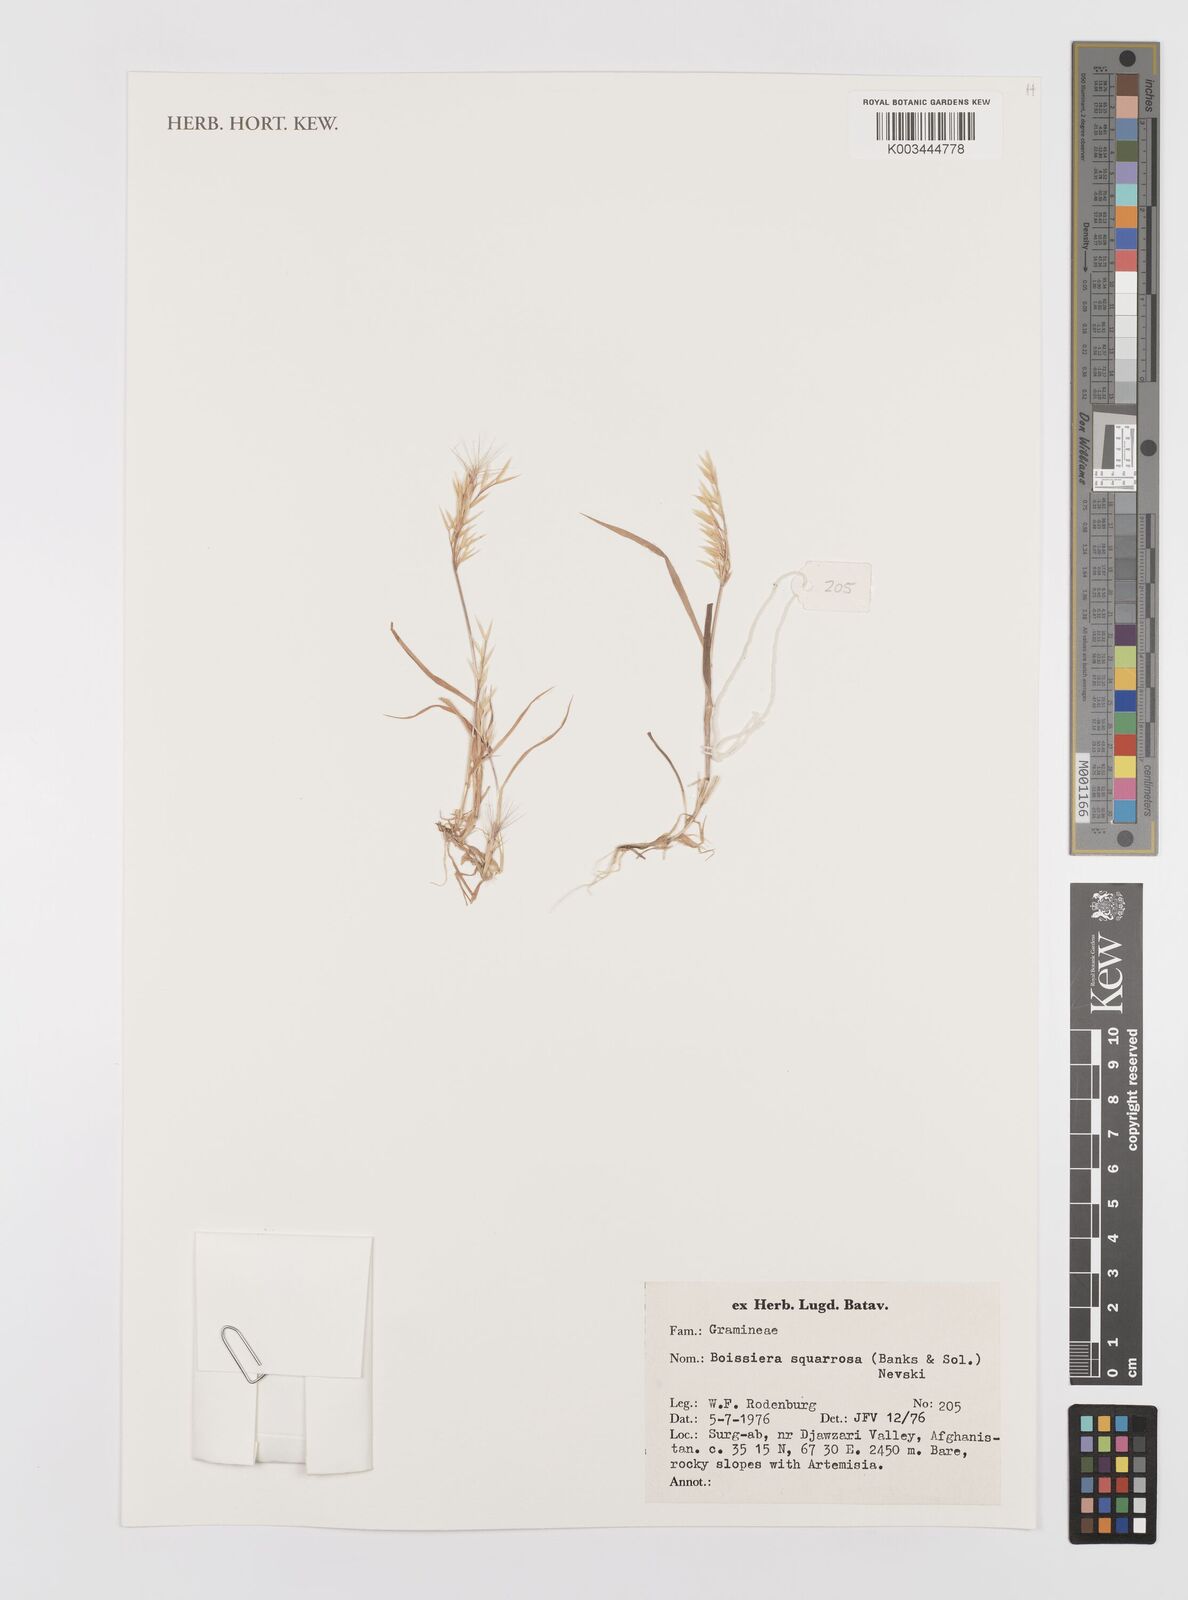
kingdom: Plantae
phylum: Tracheophyta
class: Liliopsida
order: Poales
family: Poaceae
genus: Bromus
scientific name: Bromus squarrosus
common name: Corn brome
